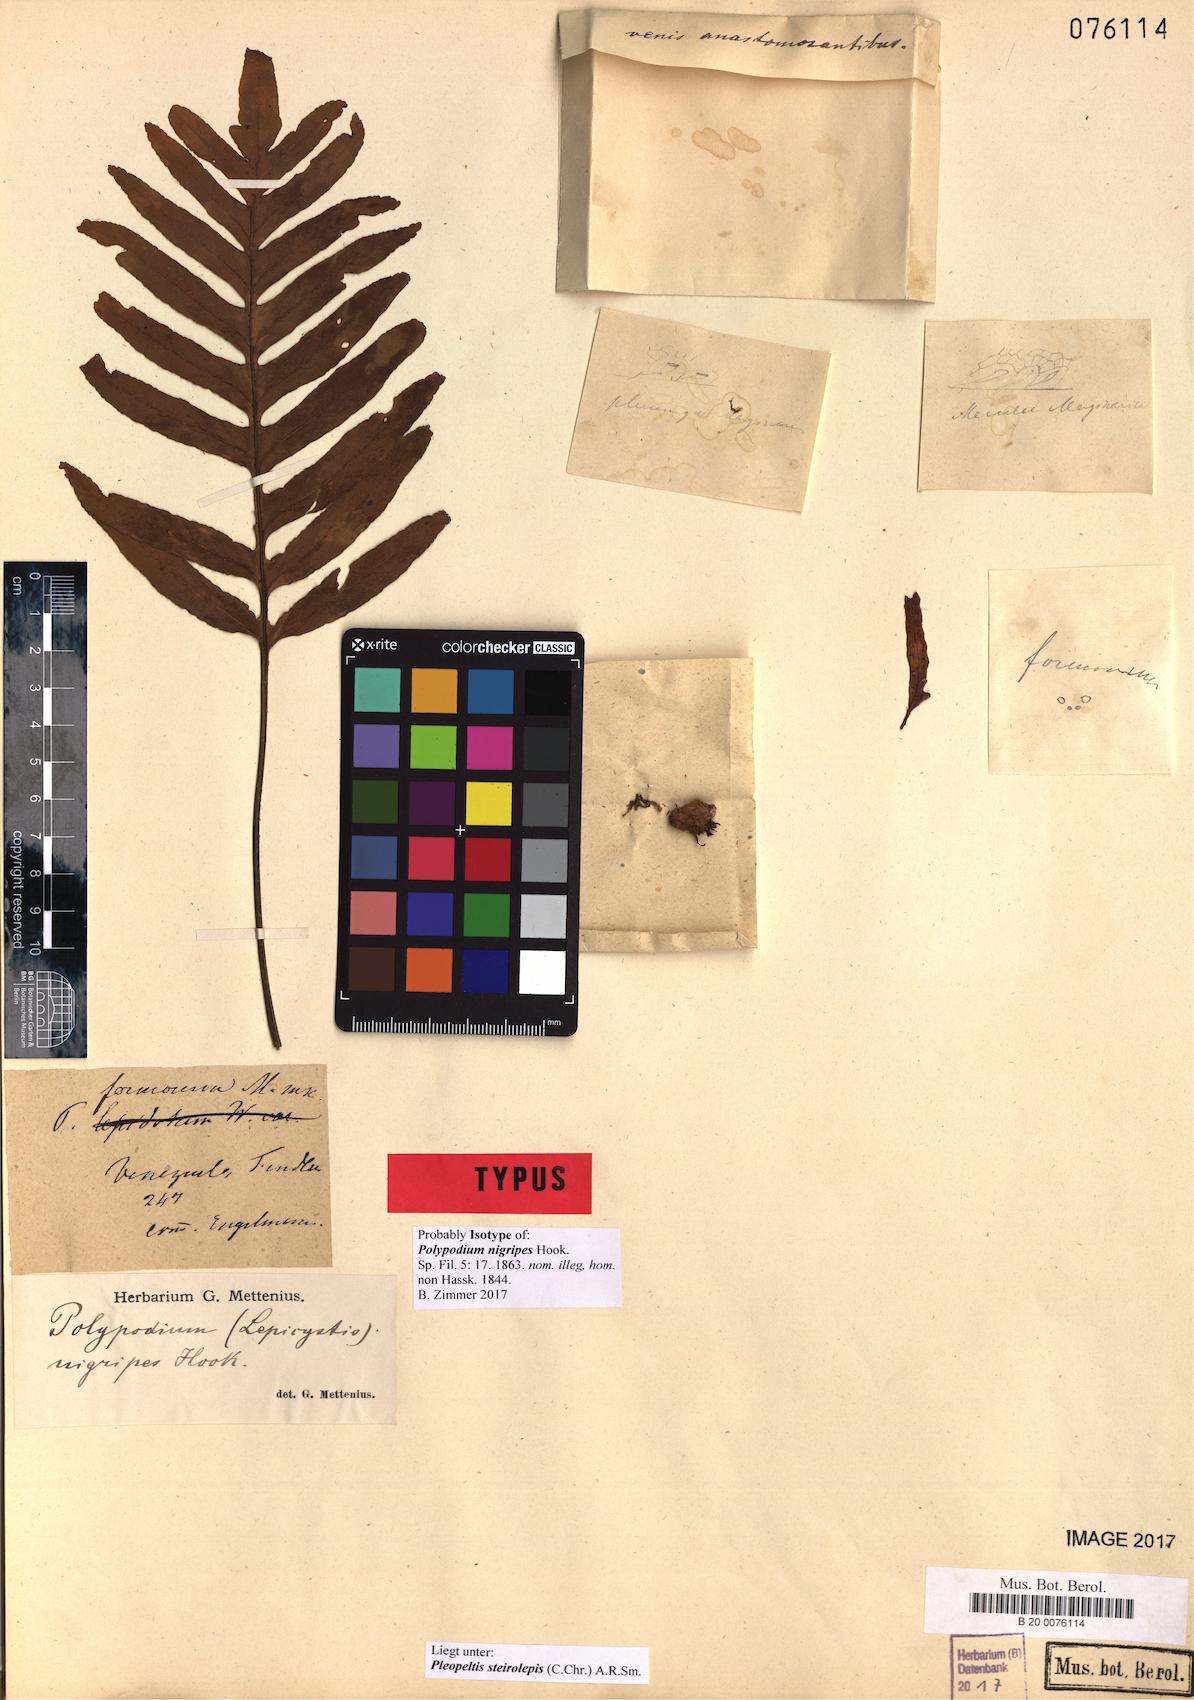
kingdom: Plantae
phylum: Tracheophyta
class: Polypodiopsida
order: Polypodiales
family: Polypodiaceae
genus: Pleopeltis
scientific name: Pleopeltis steirolepis
